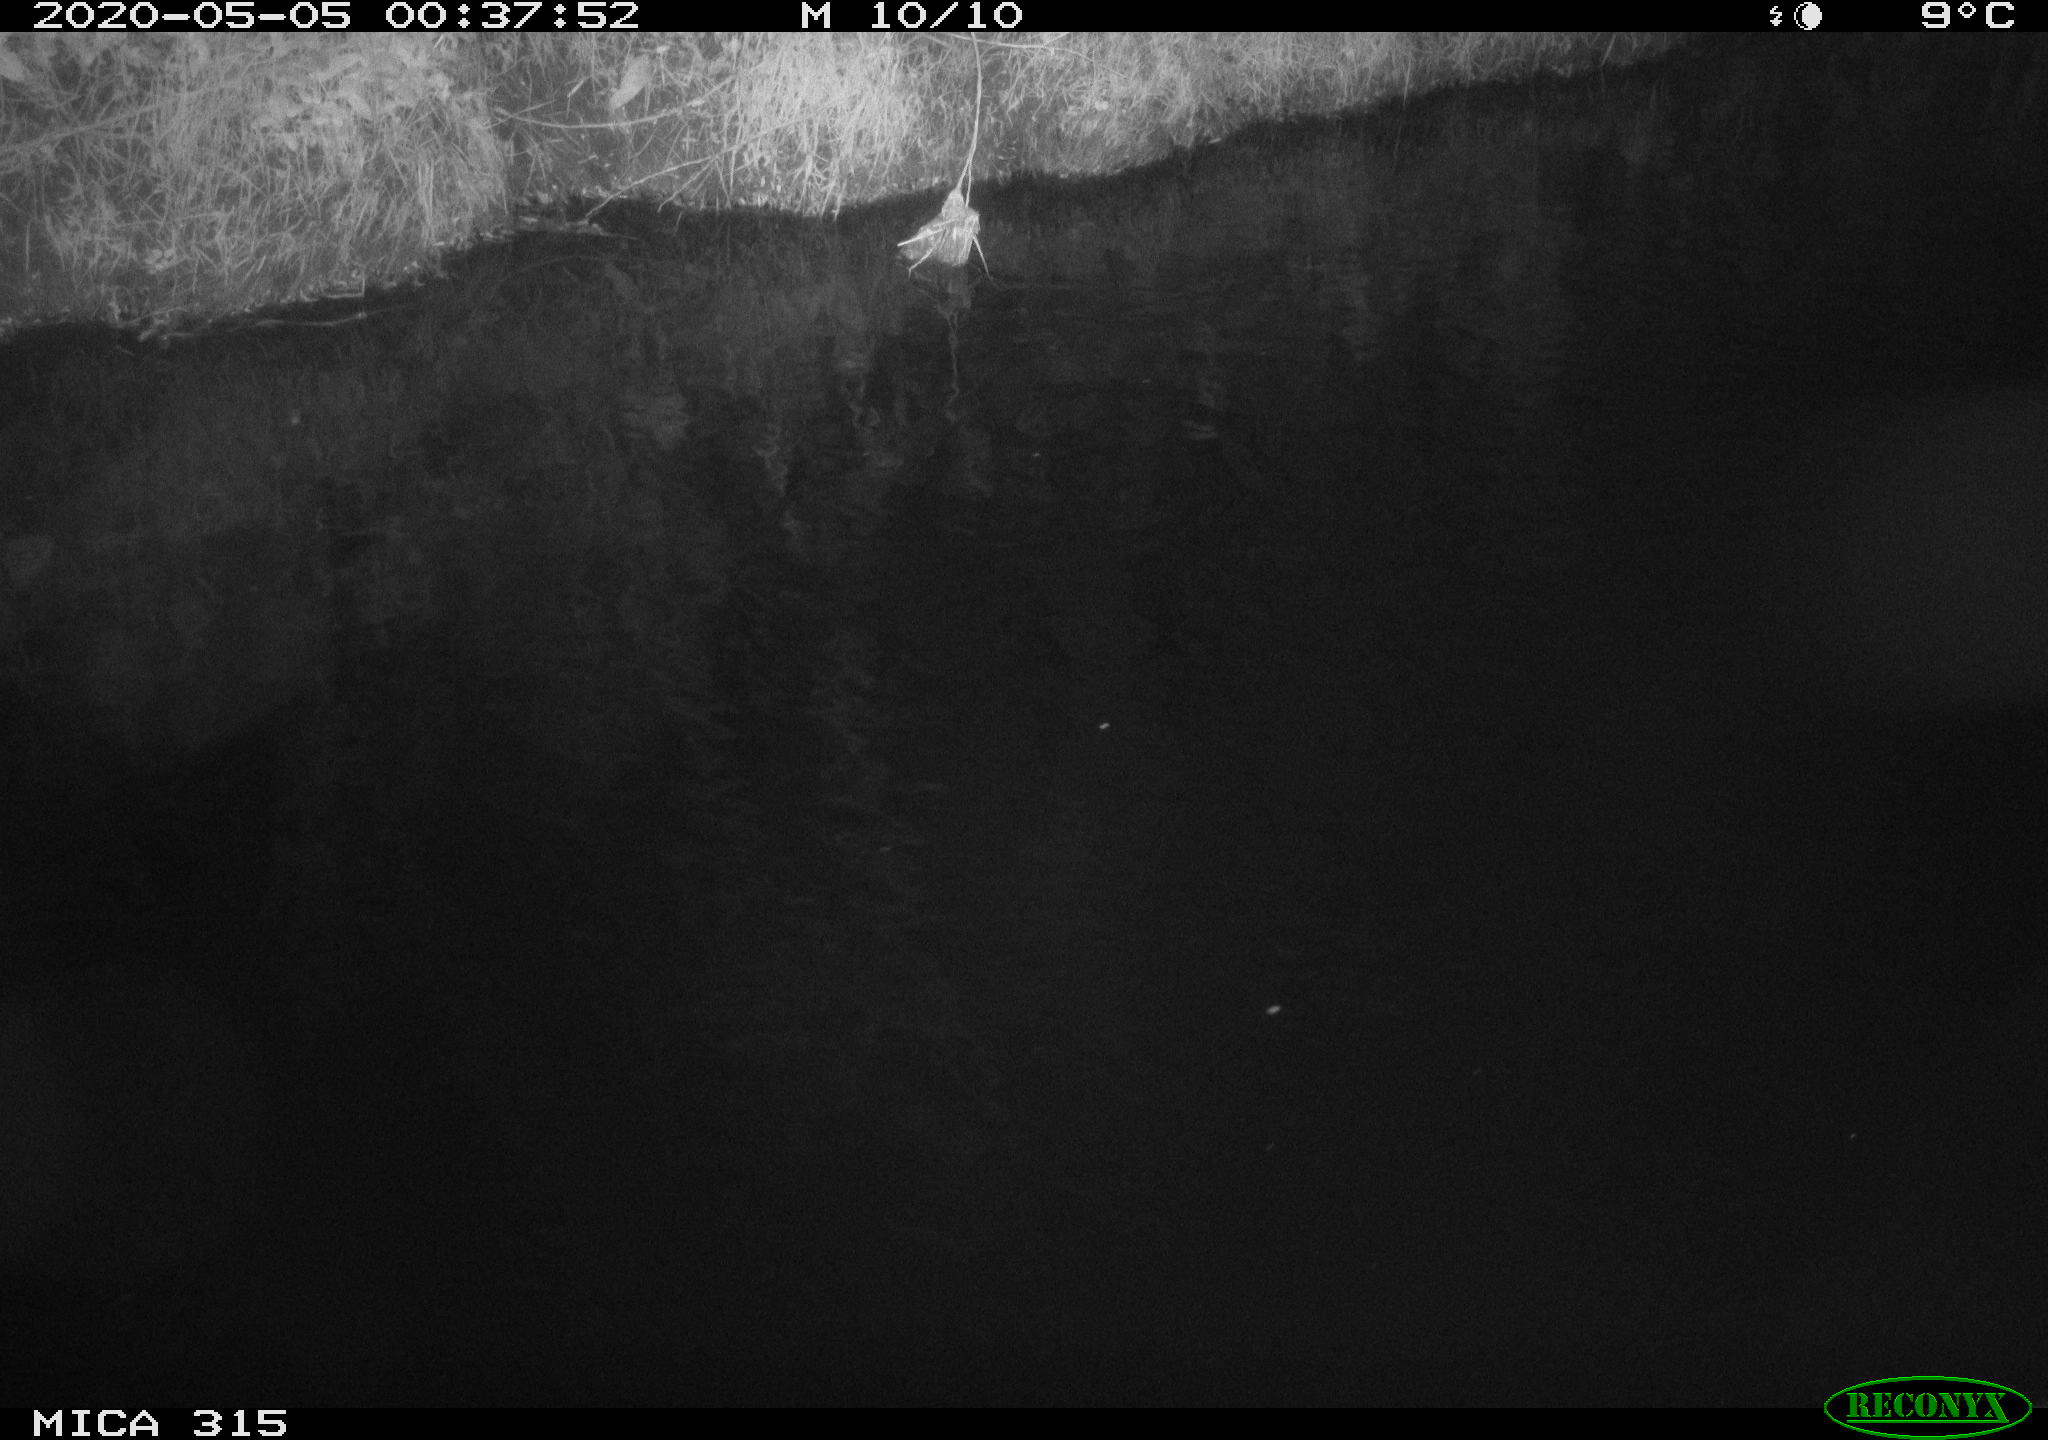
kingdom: Animalia
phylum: Chordata
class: Aves
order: Anseriformes
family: Anatidae
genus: Anas
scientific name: Anas platyrhynchos
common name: Mallard
